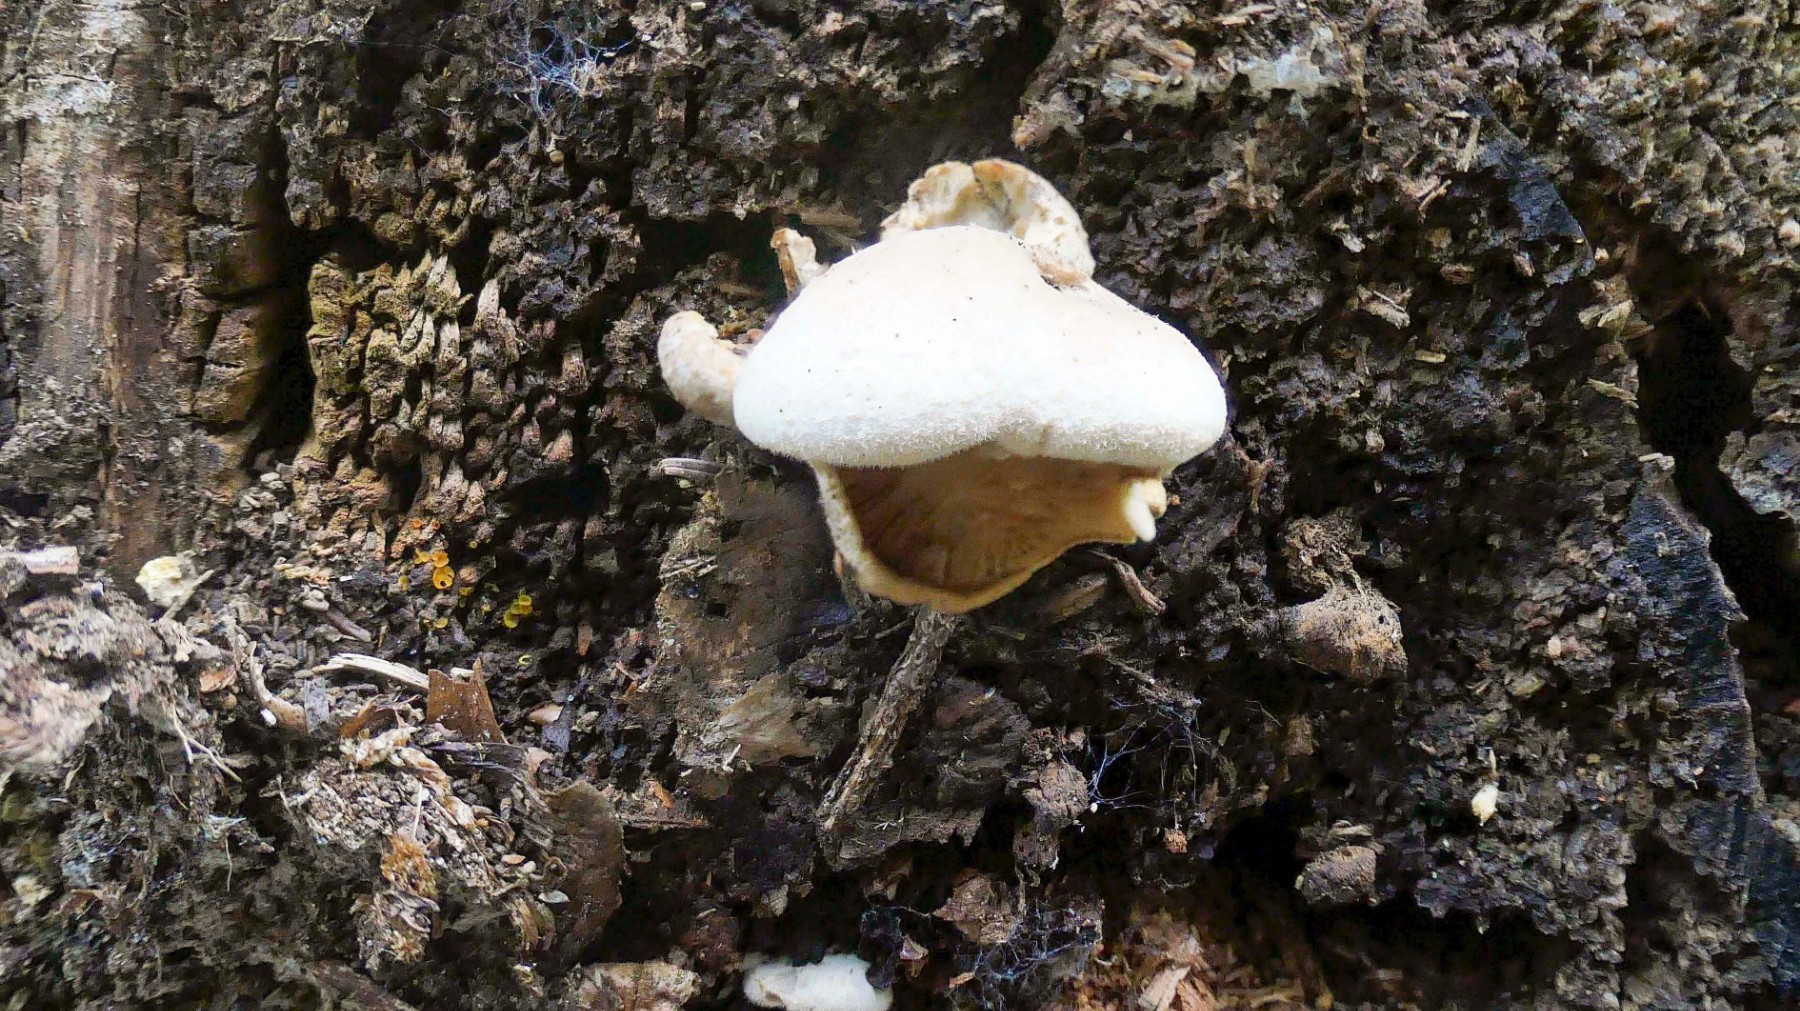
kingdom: Fungi
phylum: Basidiomycota
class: Agaricomycetes
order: Boletales
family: Tapinellaceae
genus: Tapinella
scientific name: Tapinella panuoides
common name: tømmer-viftesvamp
